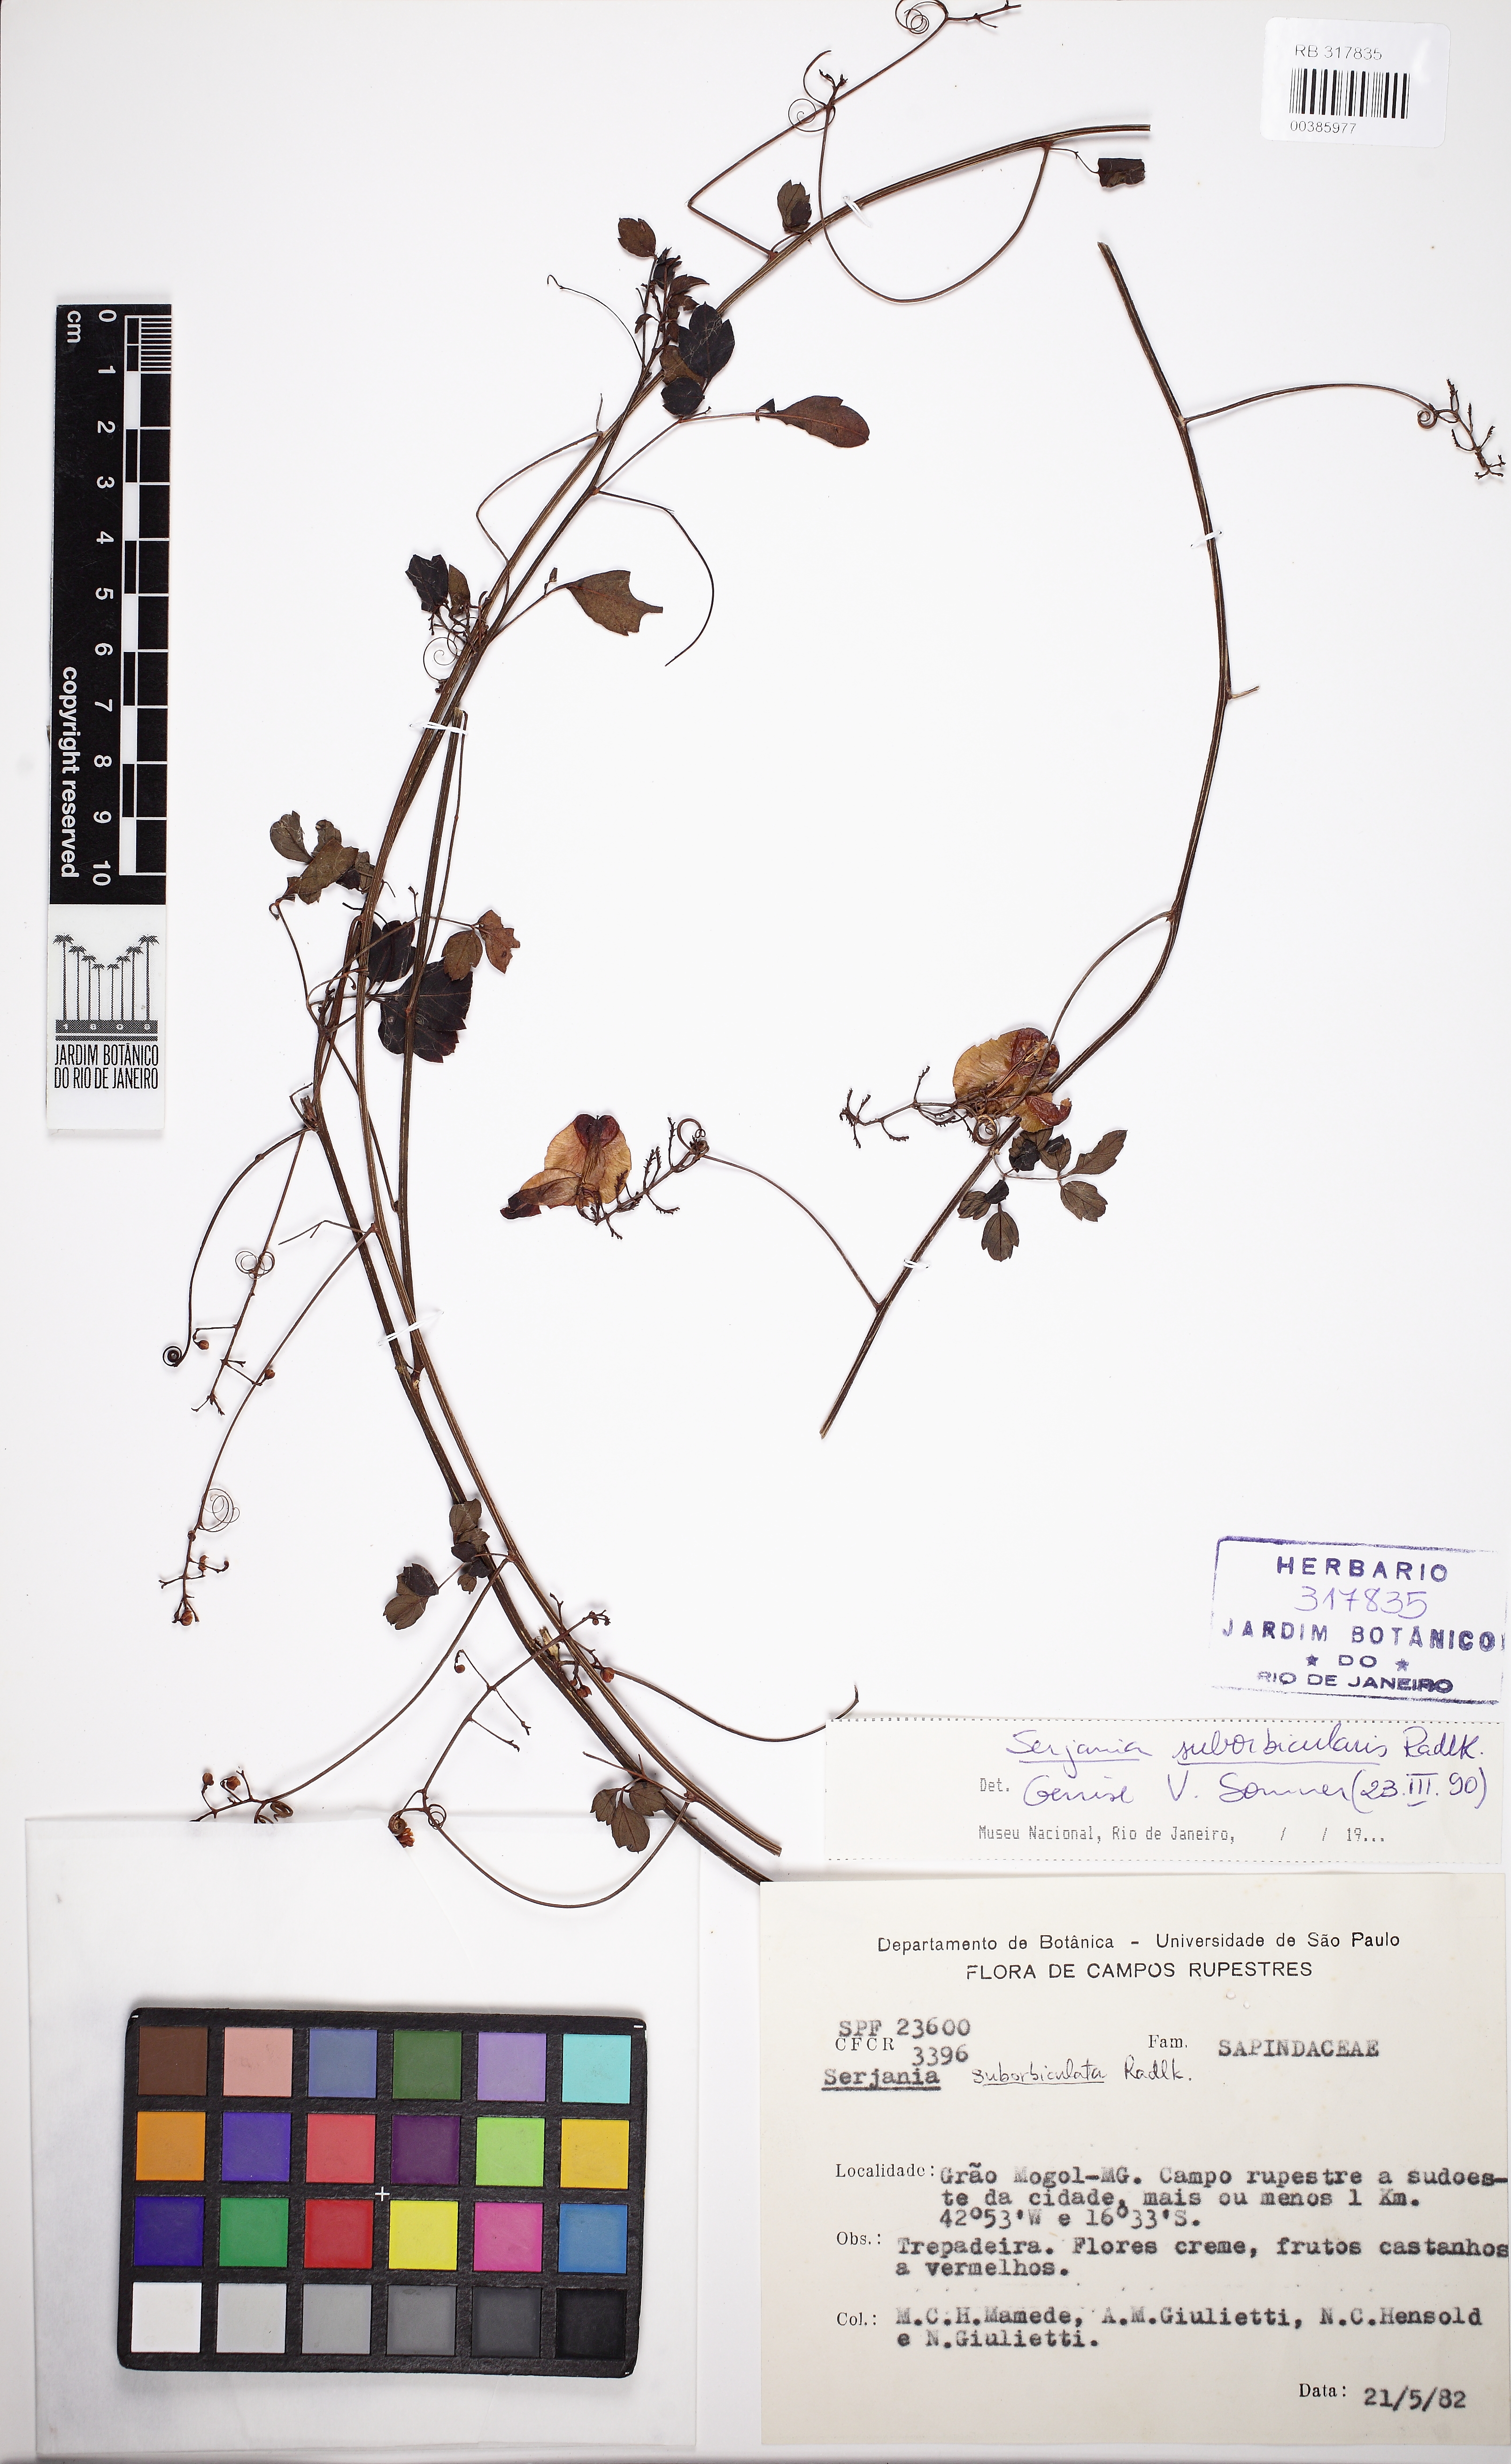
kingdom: Plantae
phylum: Tracheophyta
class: Magnoliopsida
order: Sapindales
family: Sapindaceae
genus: Serjania
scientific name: Serjania suborbicularis
